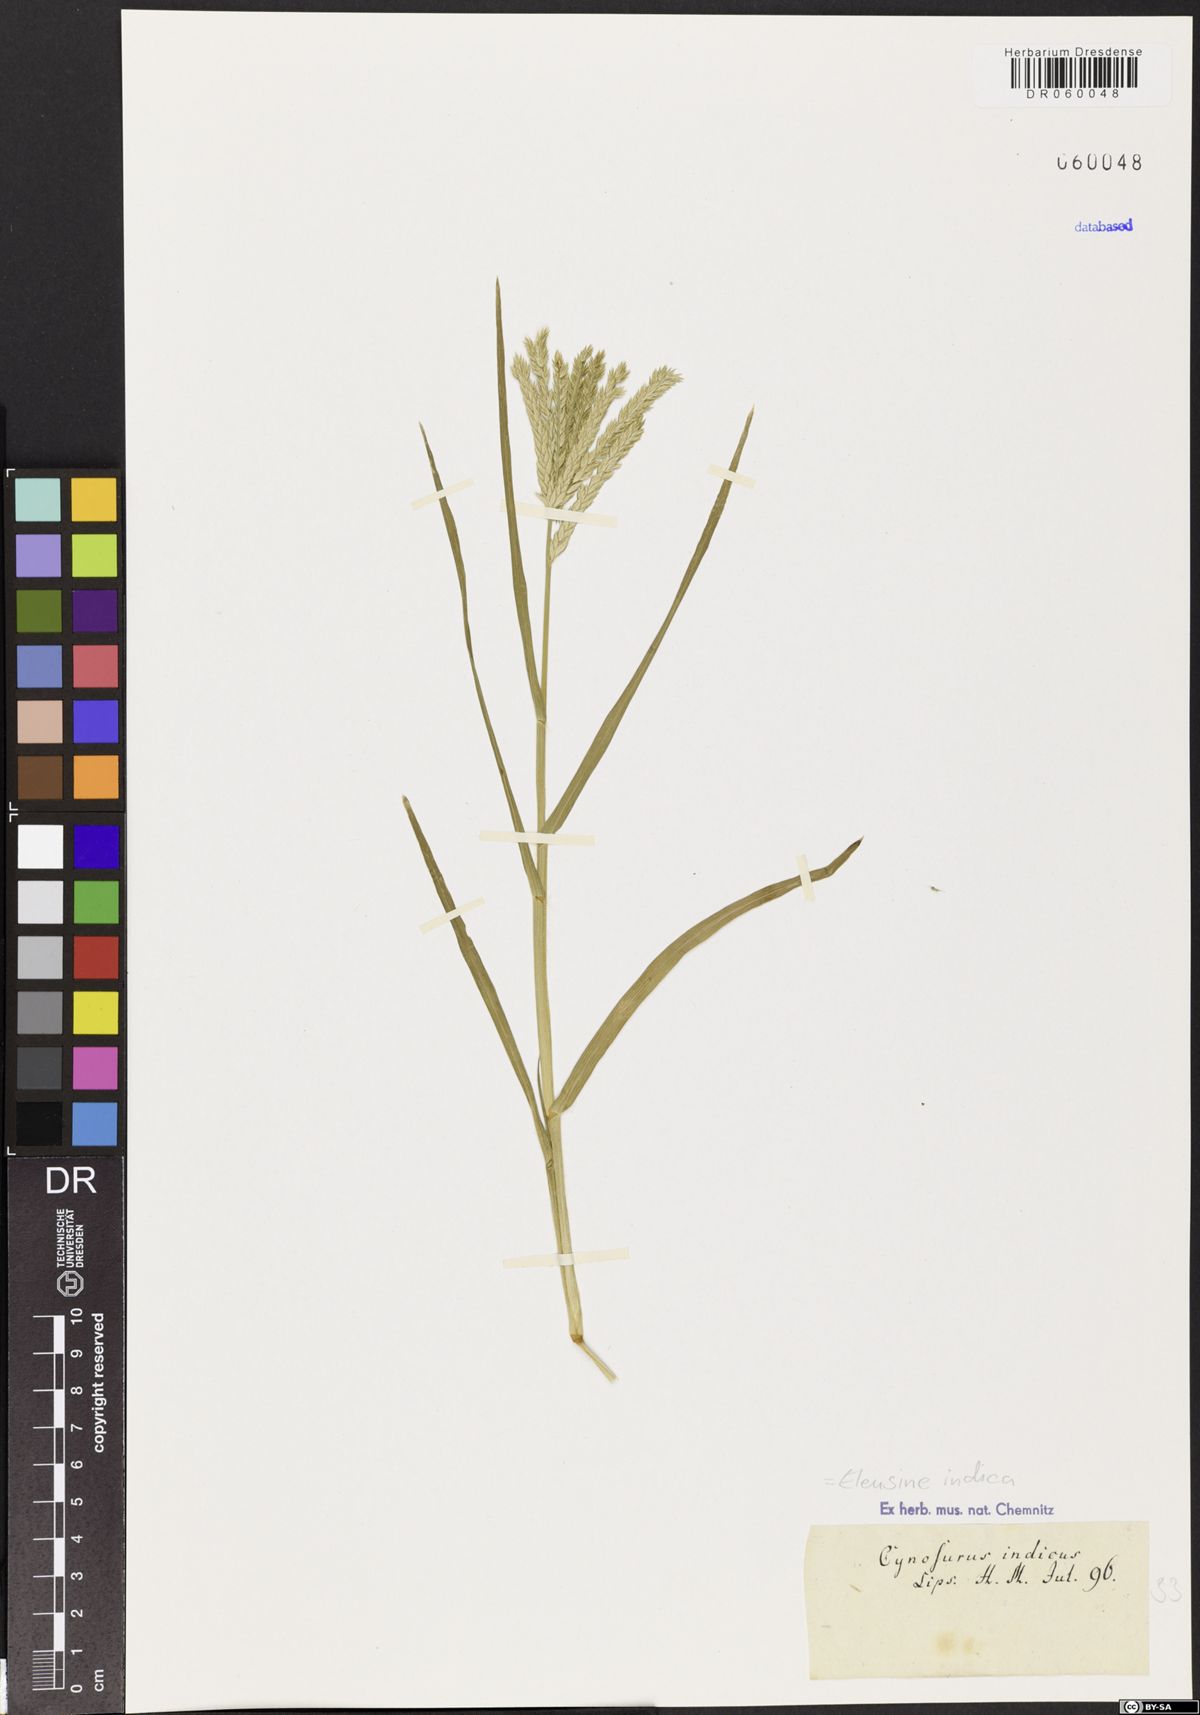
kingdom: Plantae
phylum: Tracheophyta
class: Liliopsida
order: Poales
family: Poaceae
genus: Eleusine
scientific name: Eleusine indica
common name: Yard-grass
